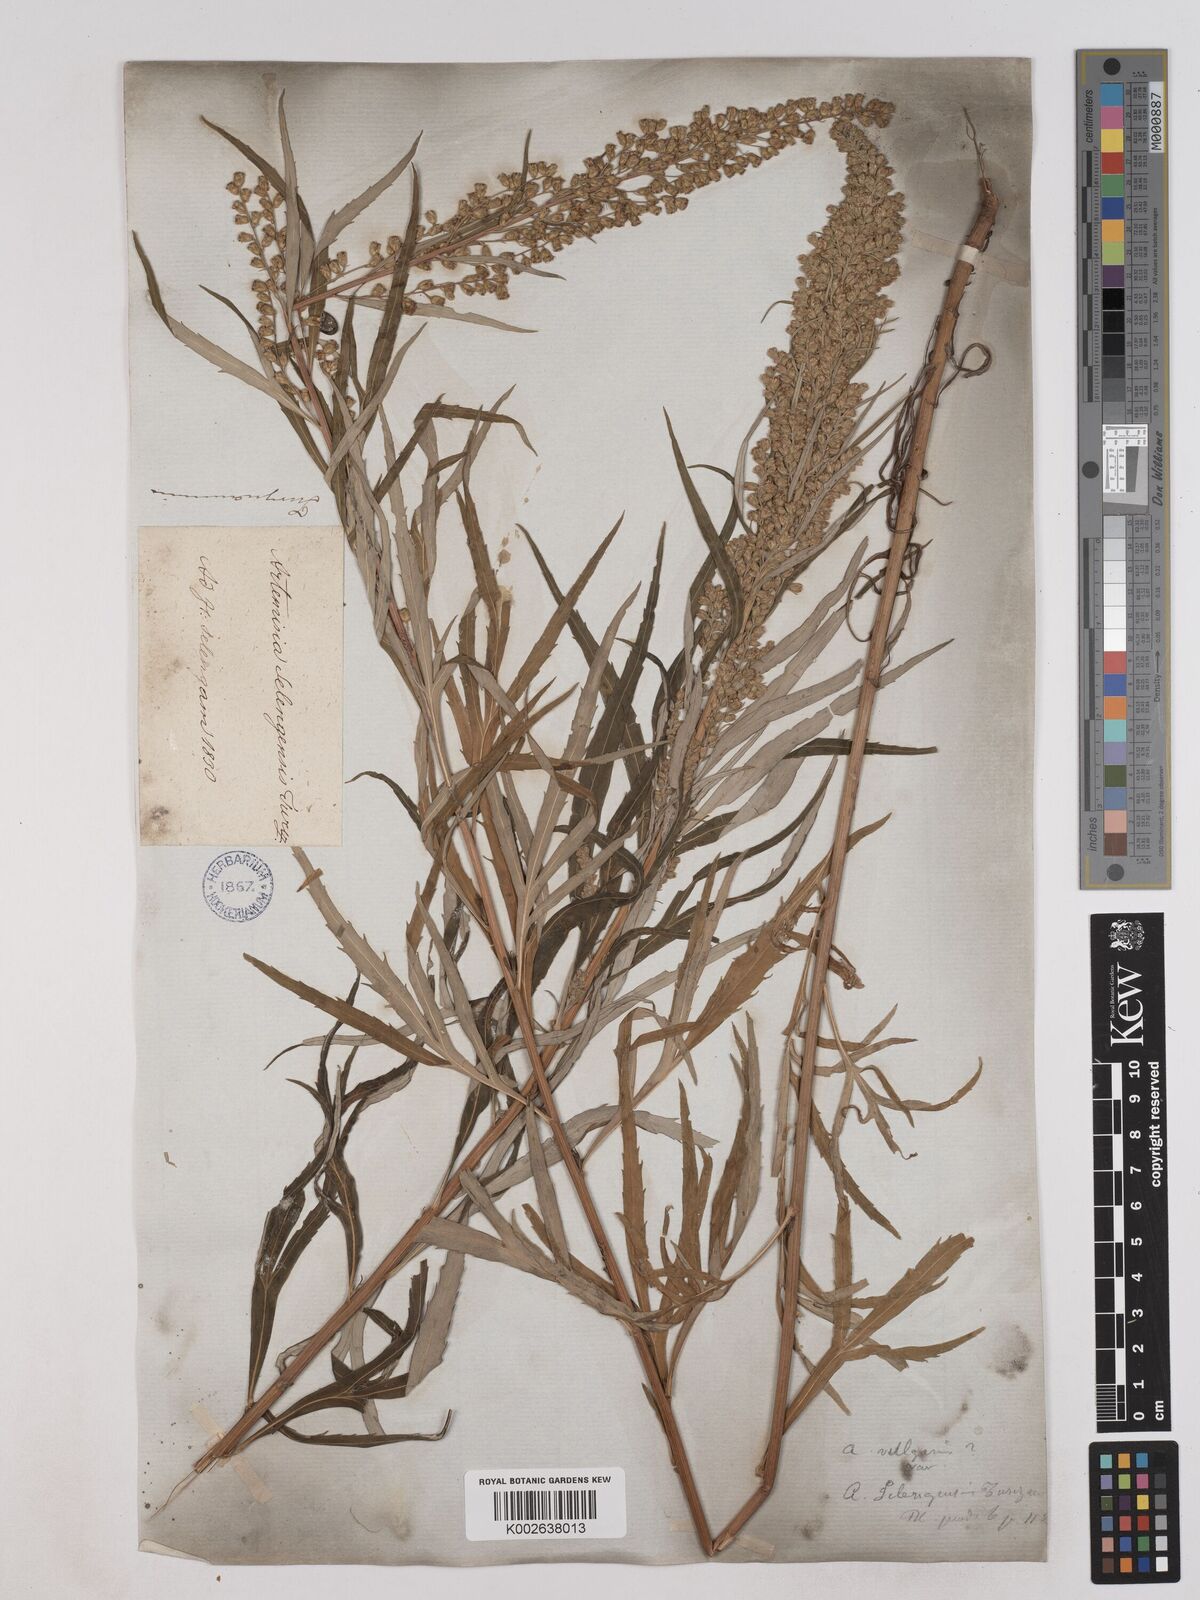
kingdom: Plantae
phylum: Tracheophyta
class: Magnoliopsida
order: Asterales
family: Asteraceae
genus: Artemisia
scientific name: Artemisia selengensis
